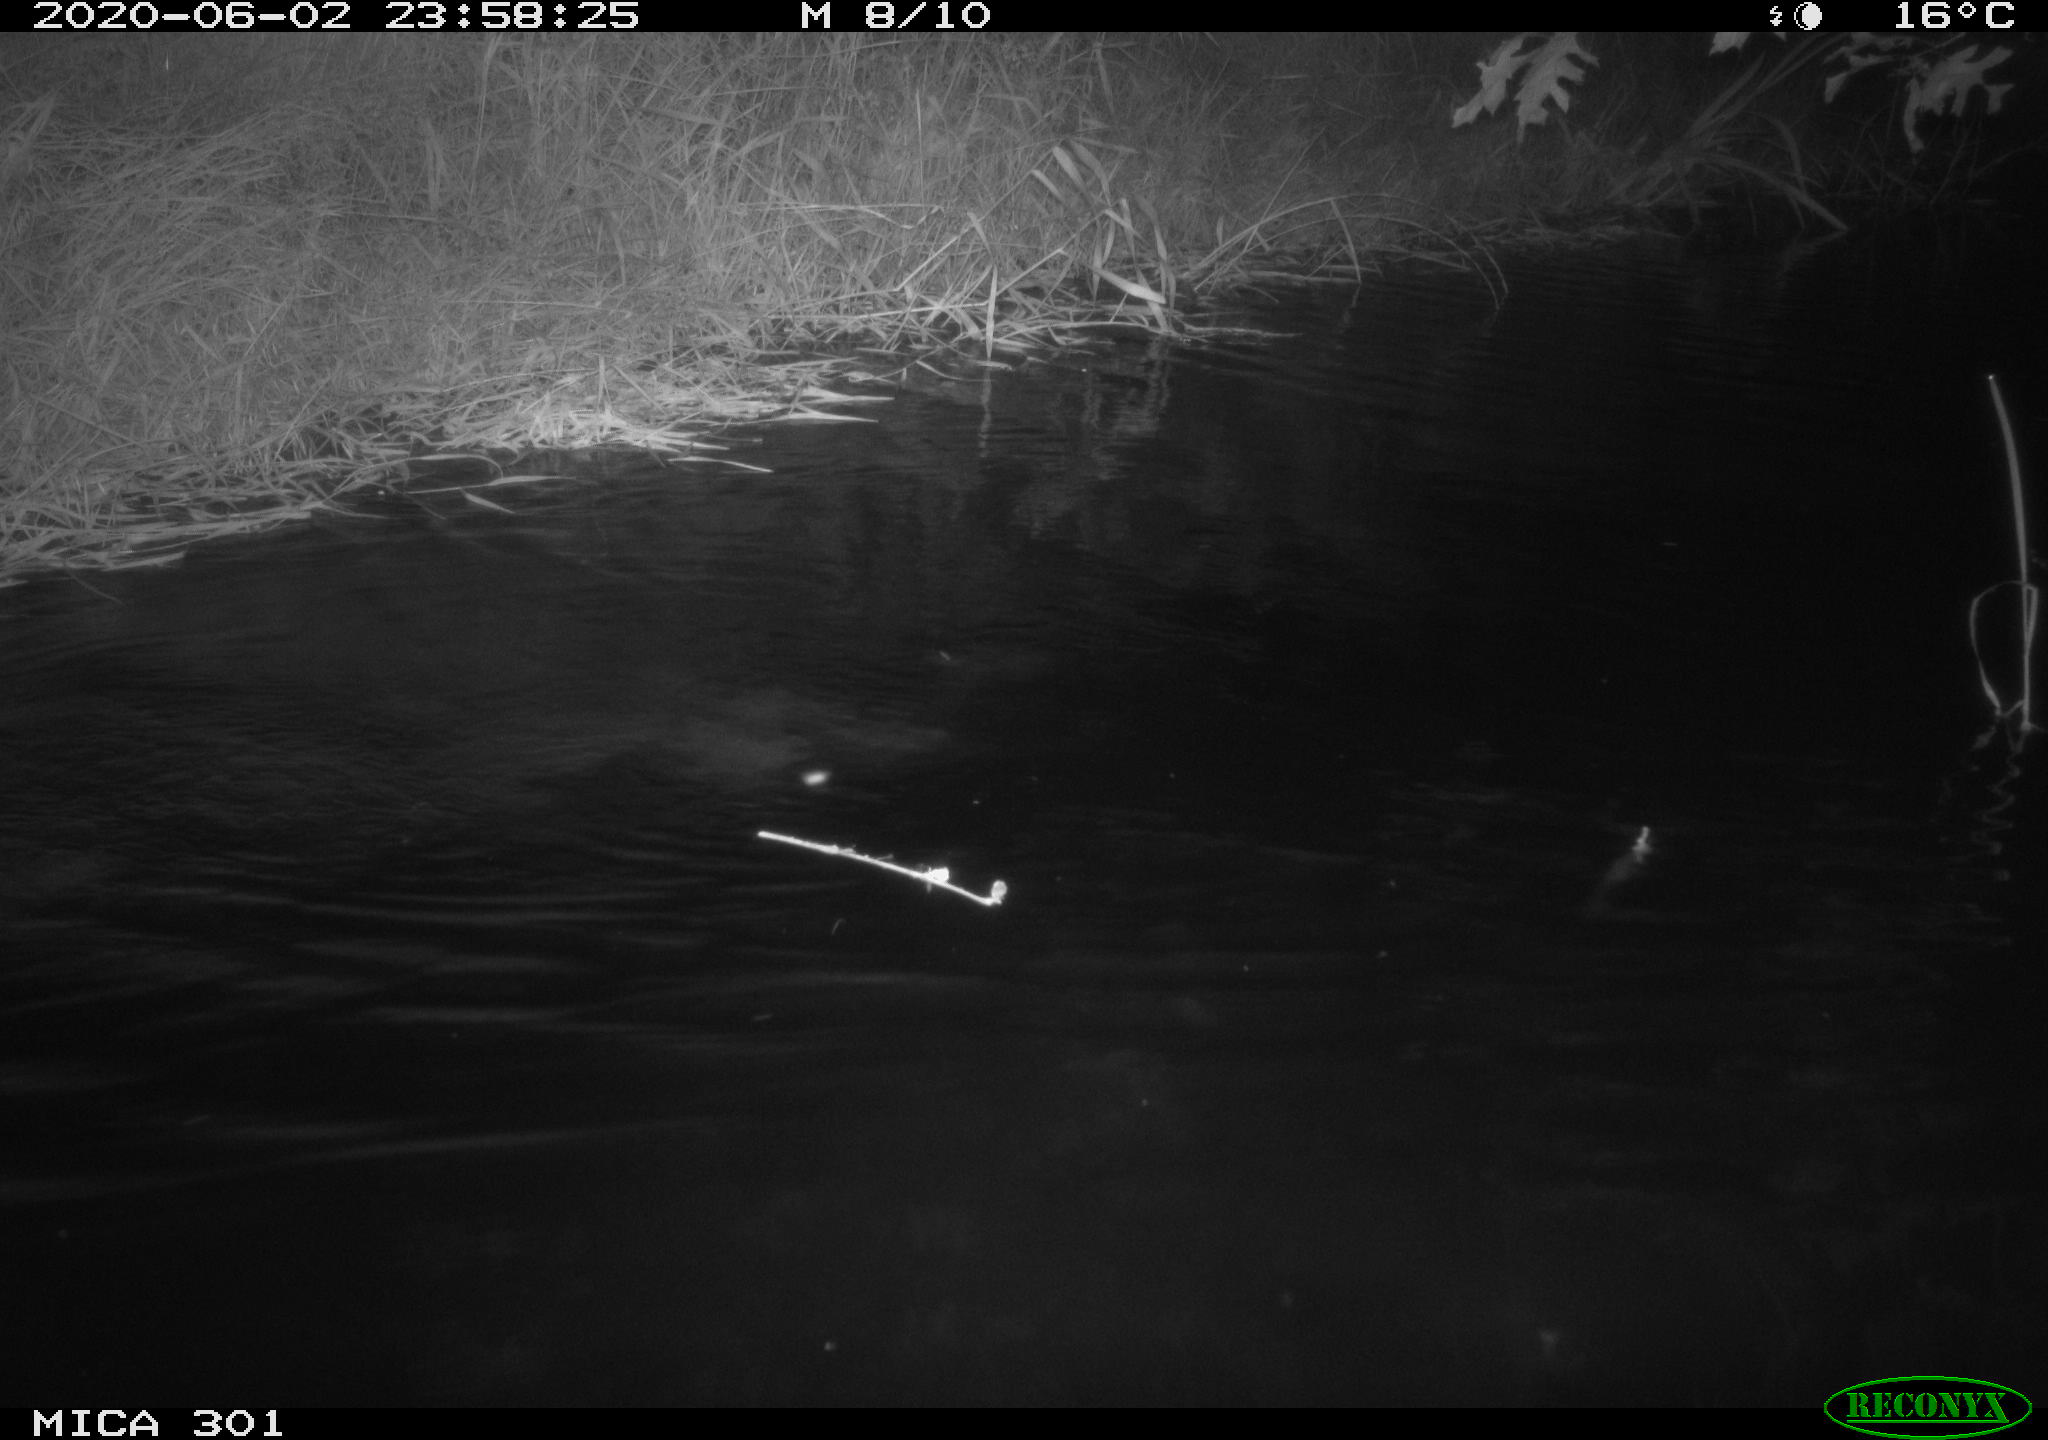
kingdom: Animalia
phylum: Chordata
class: Mammalia
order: Rodentia
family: Castoridae
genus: Castor
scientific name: Castor fiber
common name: Eurasian beaver
